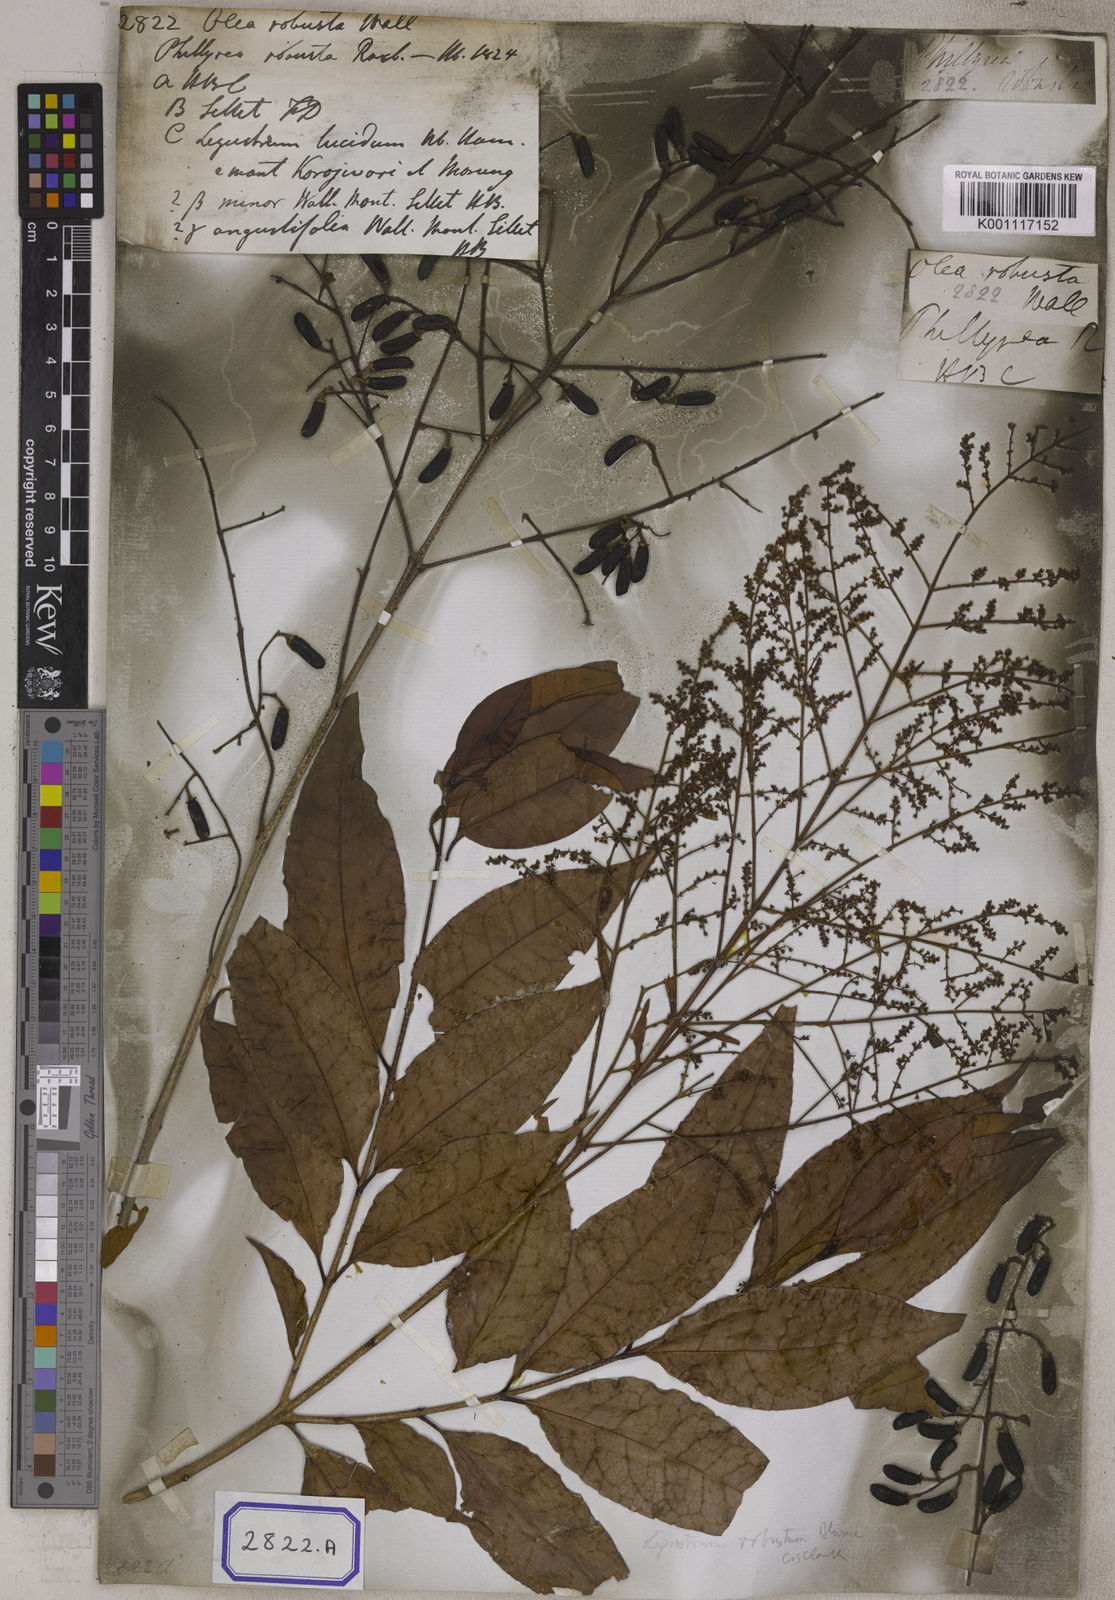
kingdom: Plantae
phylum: Tracheophyta
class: Magnoliopsida
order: Lamiales
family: Oleaceae
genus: Olea
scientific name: Olea
